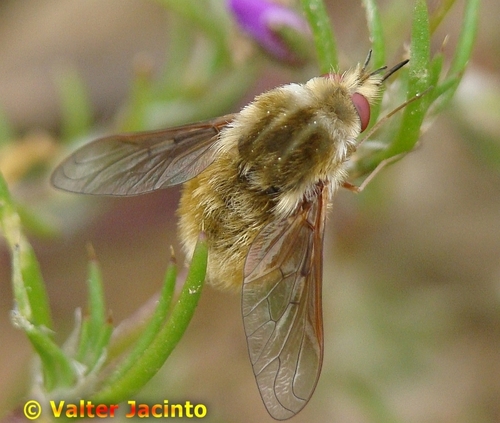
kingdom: Animalia
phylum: Arthropoda
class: Insecta
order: Diptera
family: Bombyliidae
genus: Bombylisoma
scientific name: Bombylisoma notatum
